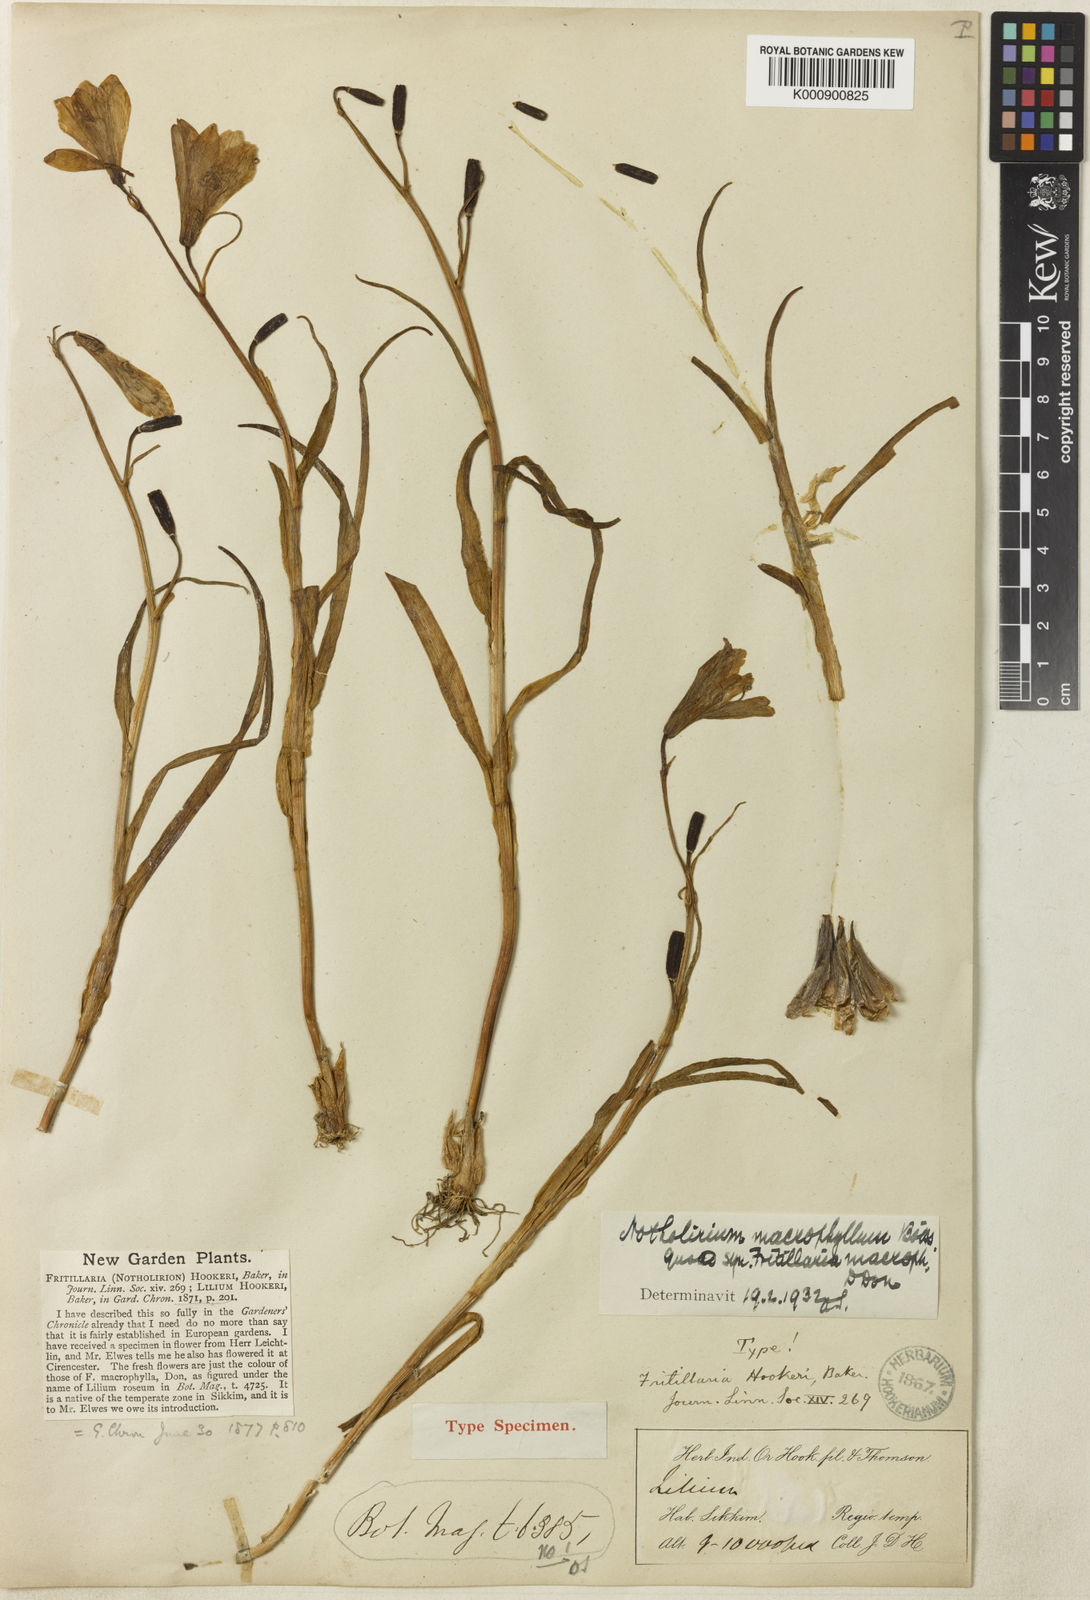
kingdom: Plantae
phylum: Tracheophyta
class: Liliopsida
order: Liliales
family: Liliaceae
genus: Notholirion
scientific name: Notholirion macrophyllum
